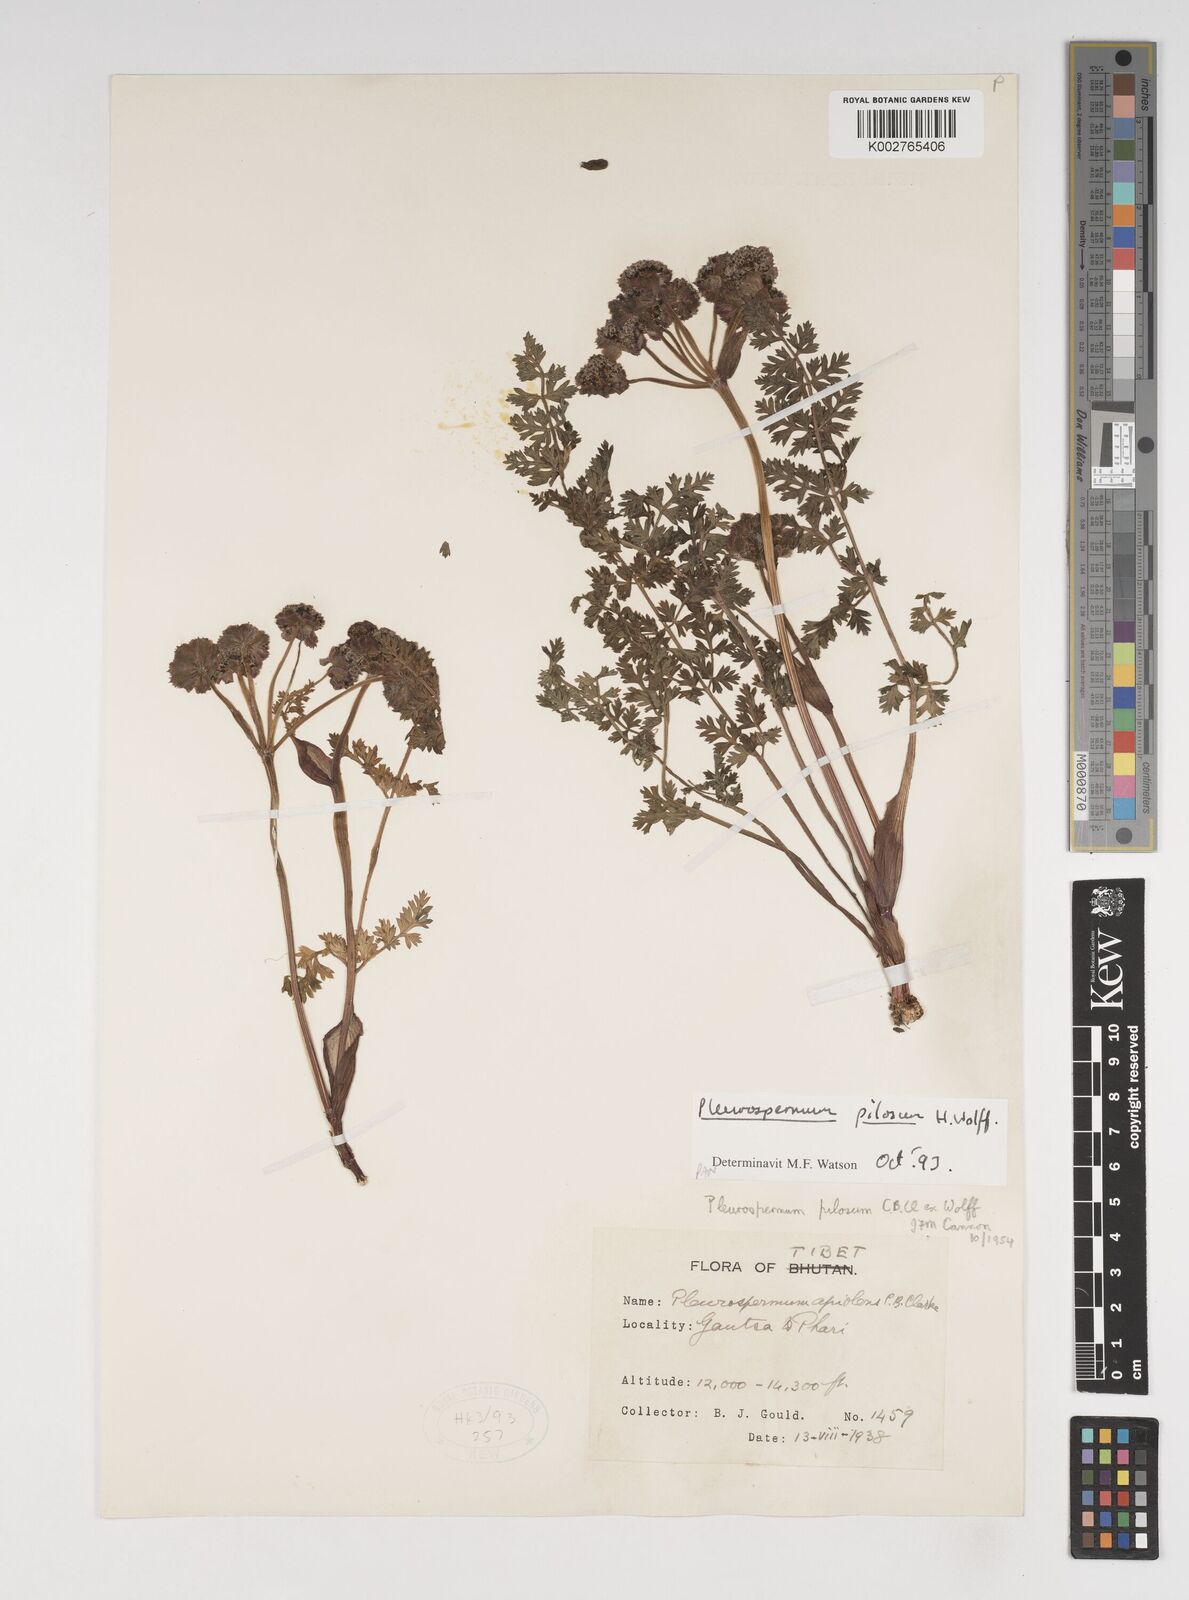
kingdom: Plantae
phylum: Tracheophyta
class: Magnoliopsida
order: Apiales
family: Apiaceae
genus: Hymenidium
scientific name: Hymenidium pilosum
